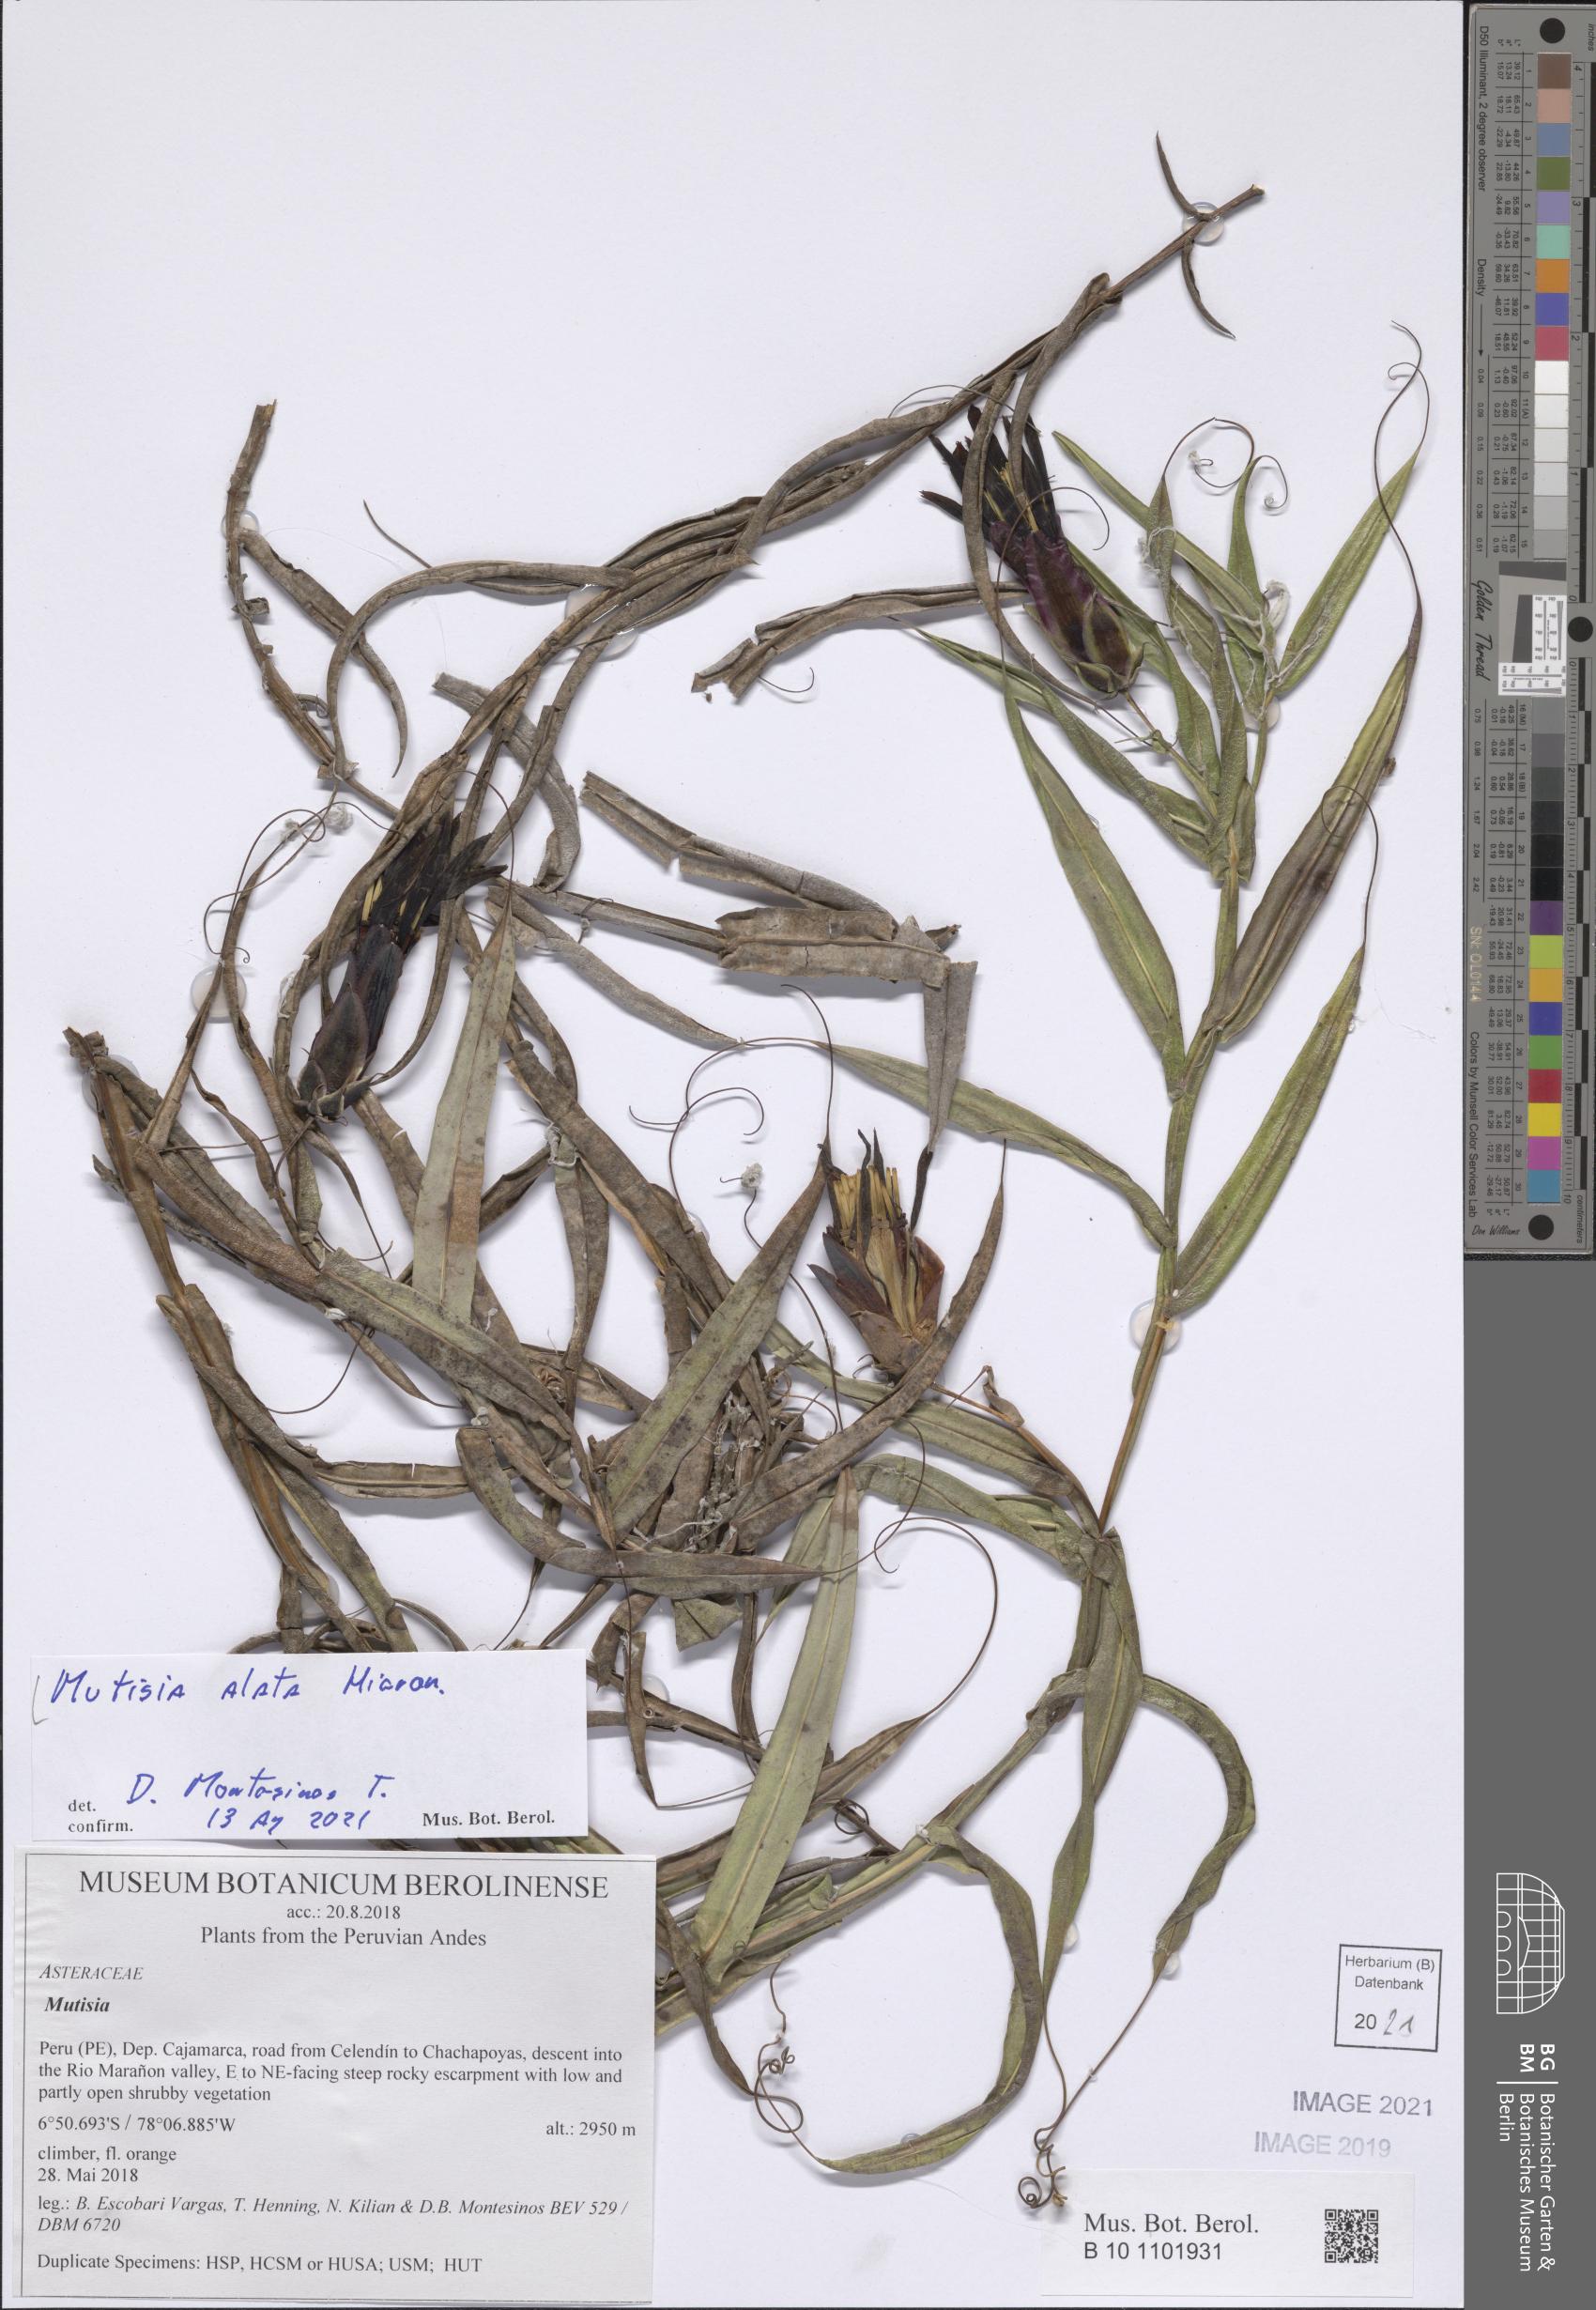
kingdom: Plantae
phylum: Tracheophyta
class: Magnoliopsida
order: Asterales
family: Asteraceae
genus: Mutisia
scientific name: Mutisia alata
